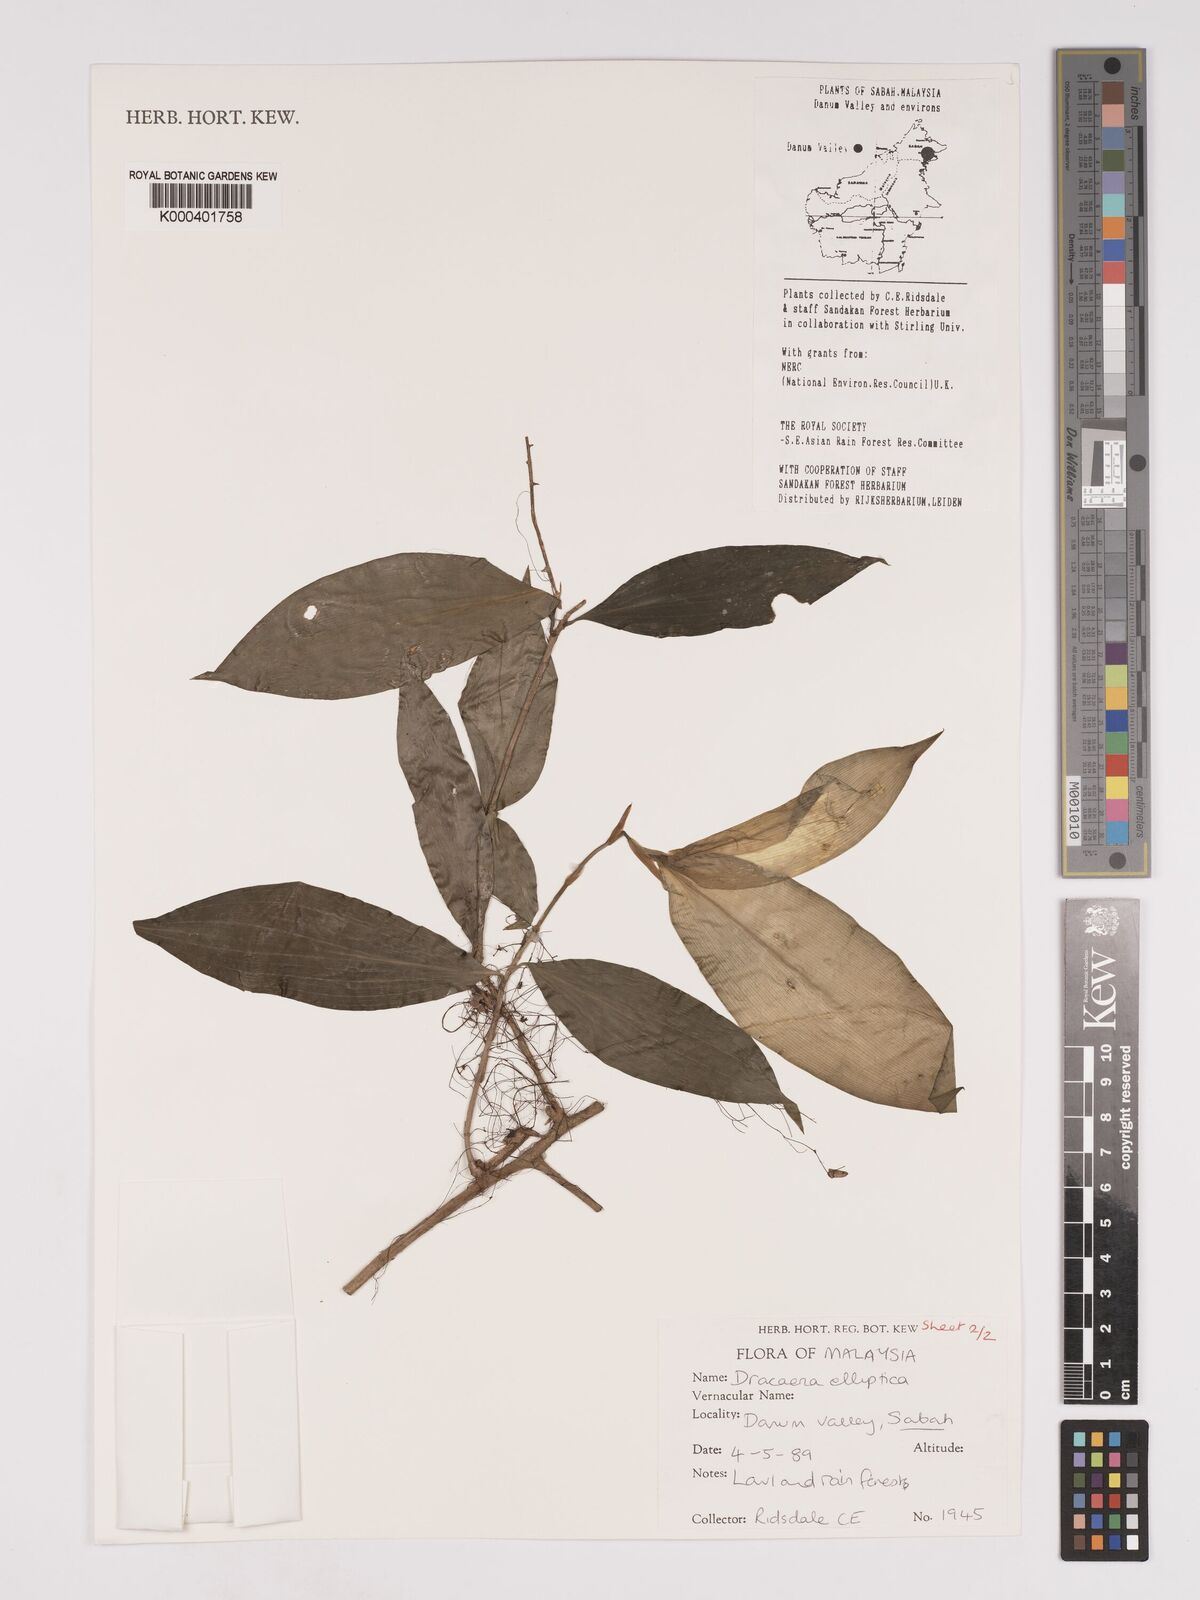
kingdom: Plantae
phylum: Tracheophyta
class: Liliopsida
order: Asparagales
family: Asparagaceae
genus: Dracaena
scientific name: Dracaena elliptica
